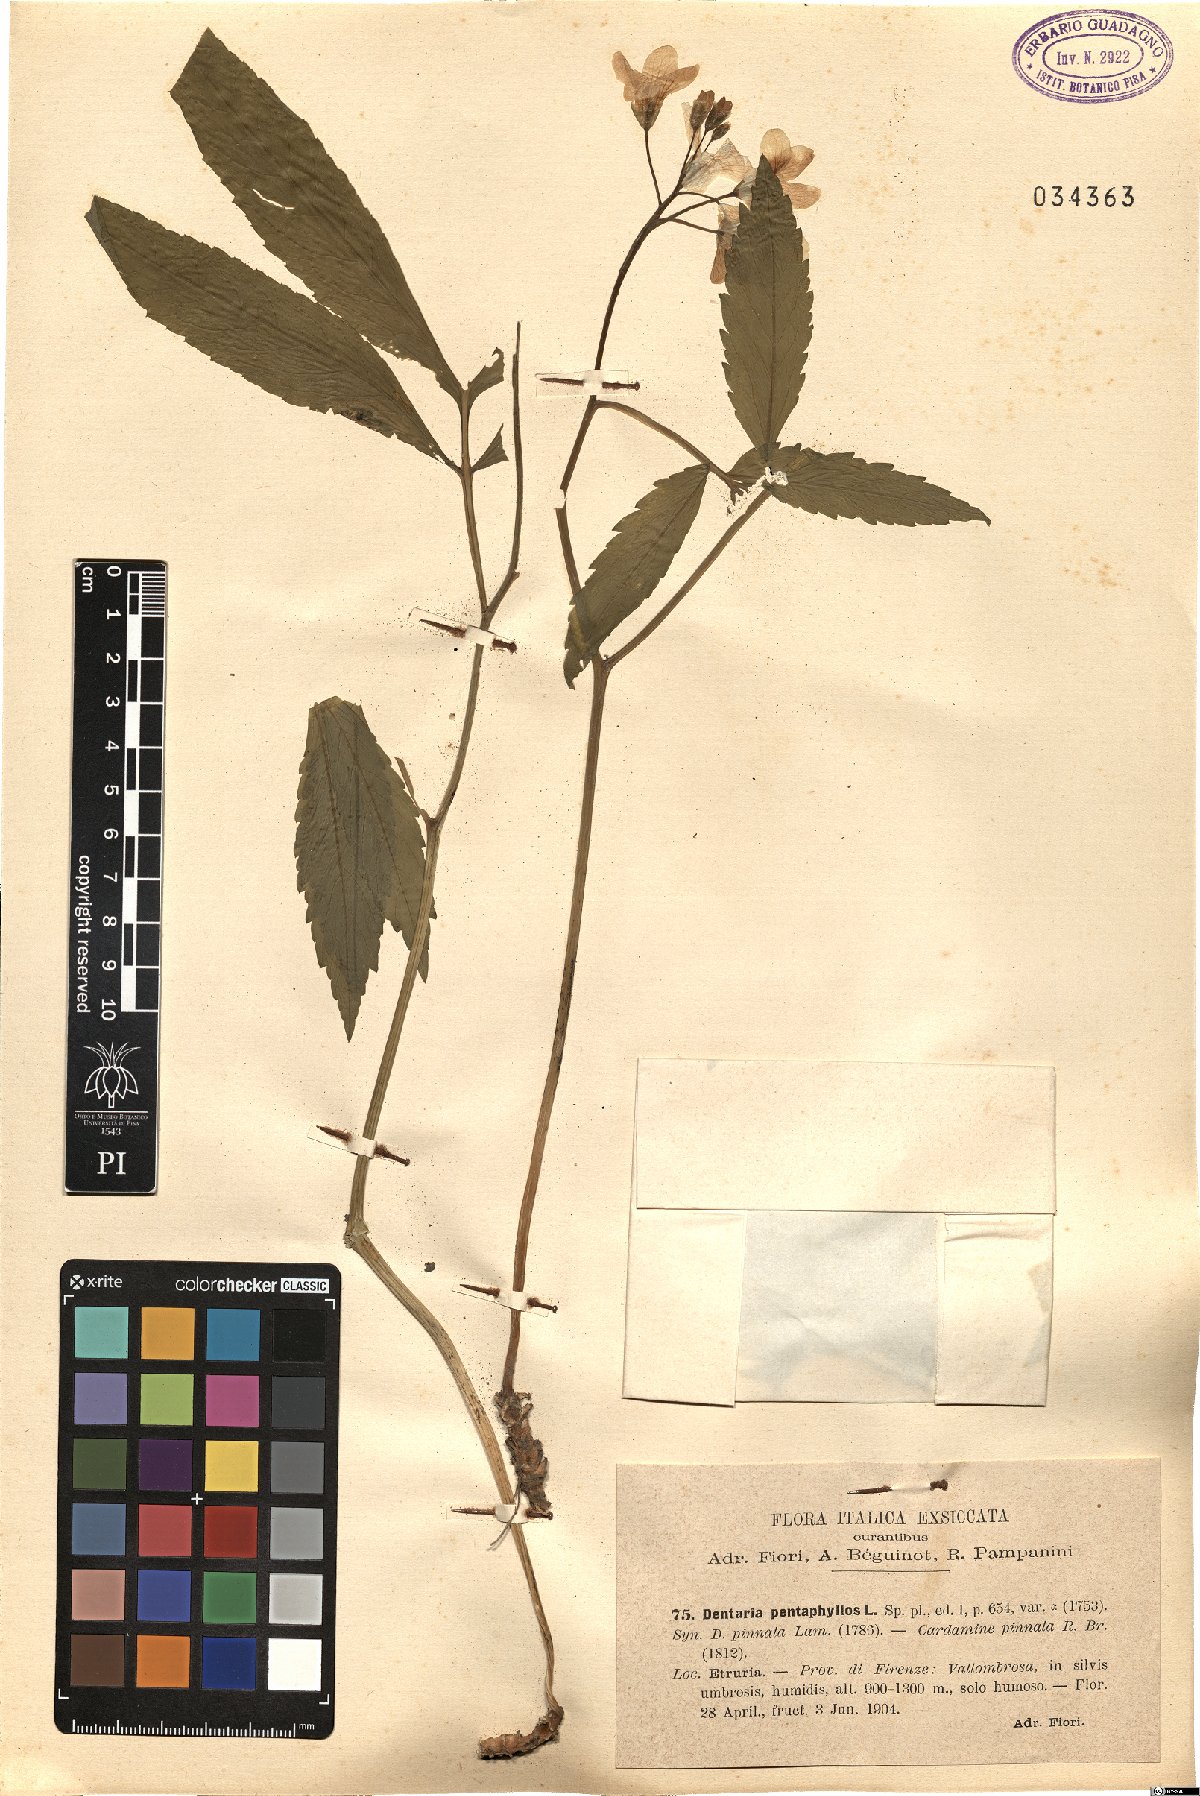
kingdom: Plantae
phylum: Tracheophyta
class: Magnoliopsida
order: Brassicales
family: Brassicaceae
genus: Cardamine
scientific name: Cardamine pentaphyllos
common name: Five-leaflet bitter-cress
